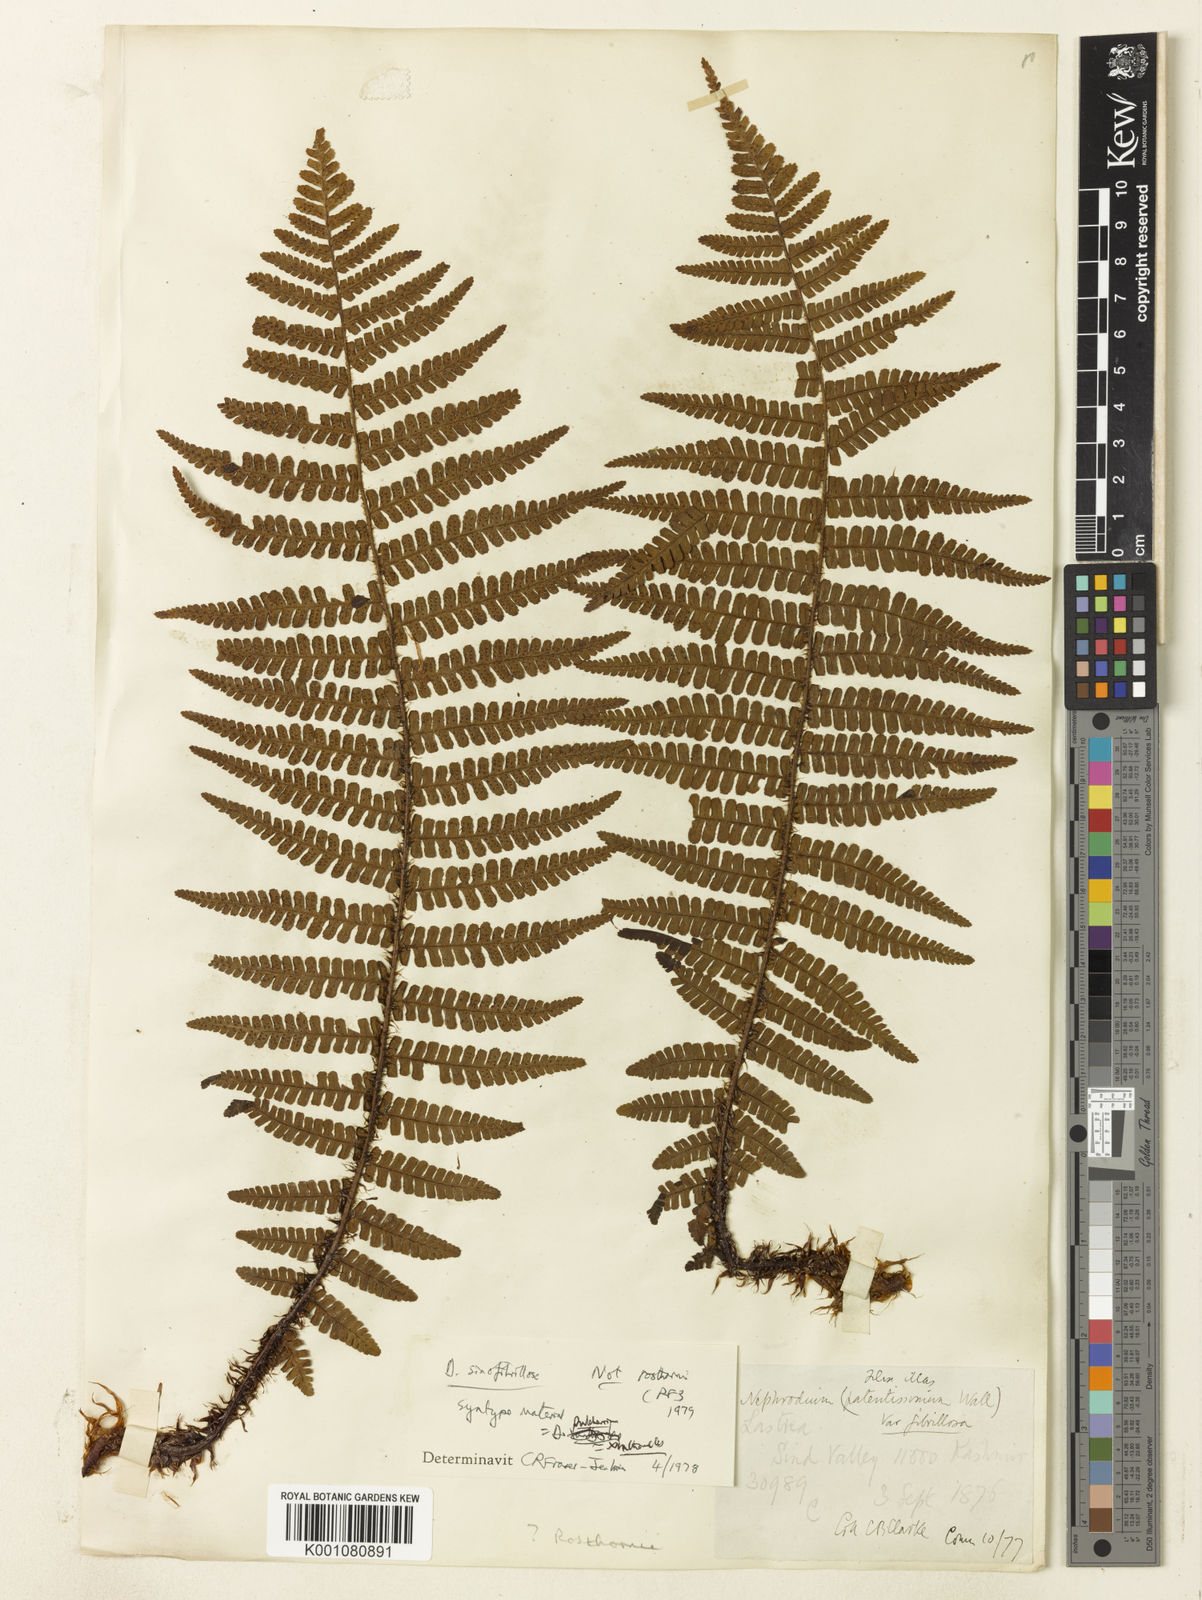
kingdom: Plantae
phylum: Tracheophyta
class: Polypodiopsida
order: Polypodiales
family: Dryopteridaceae
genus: Dryopteris
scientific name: Dryopteris xanthomelas
